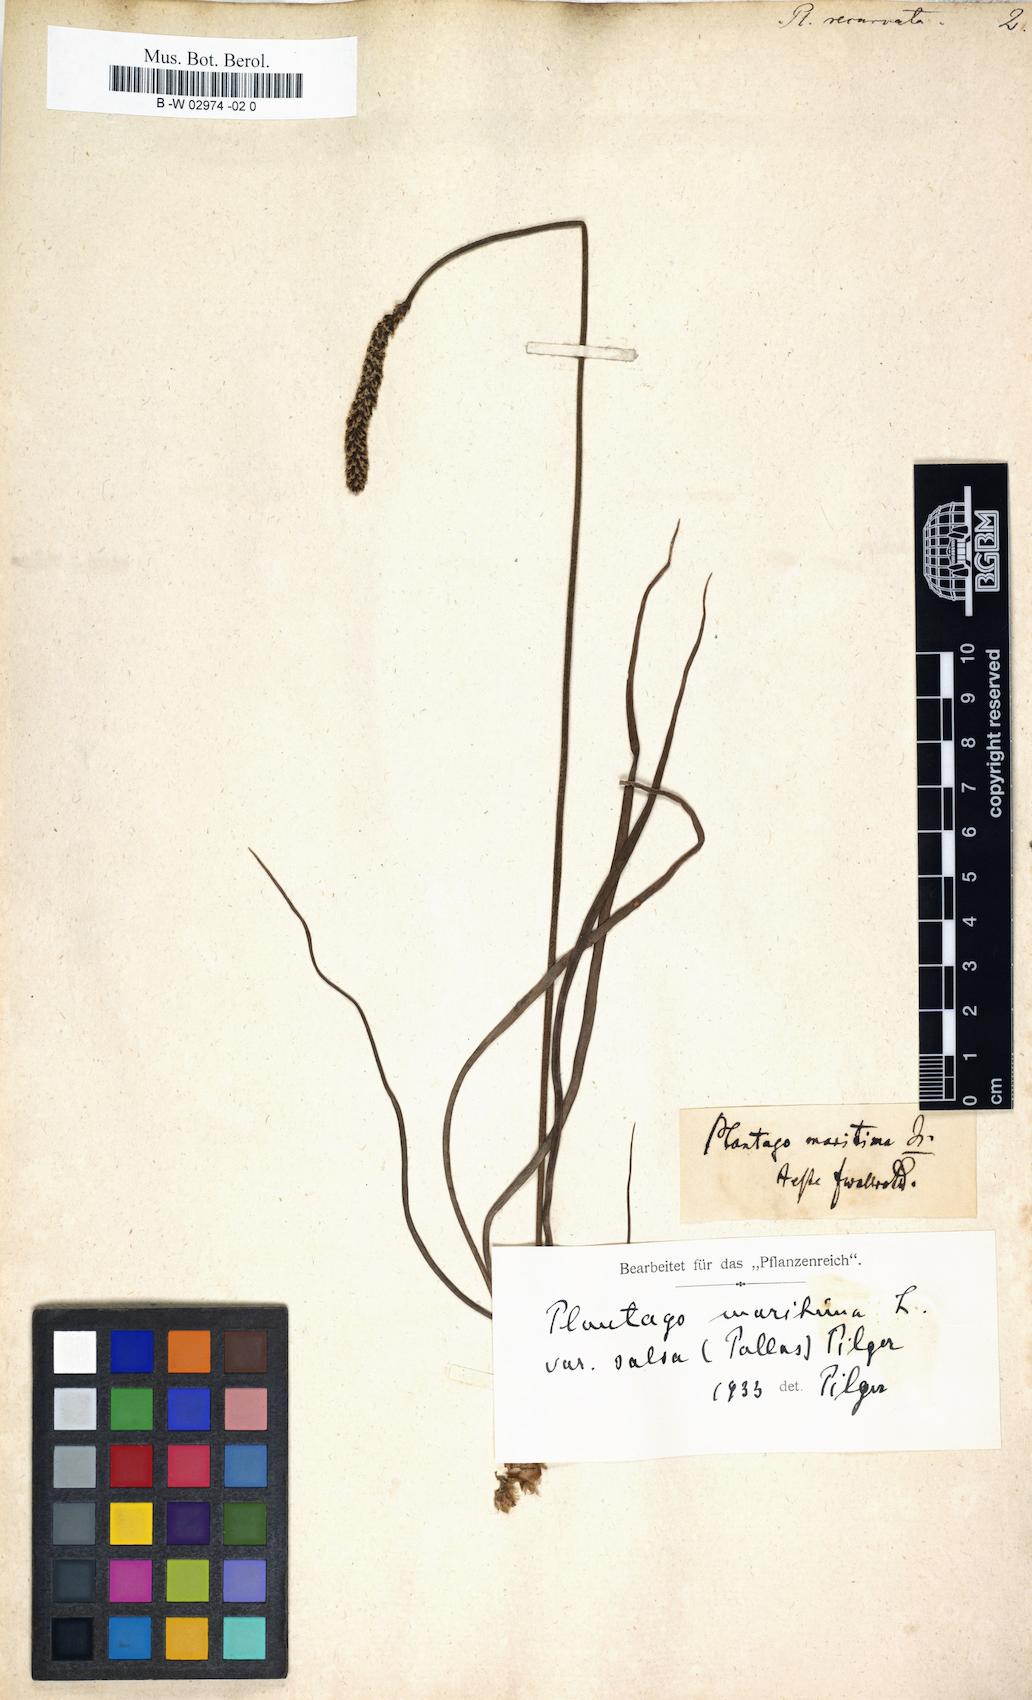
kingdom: Plantae
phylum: Tracheophyta
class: Magnoliopsida
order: Lamiales
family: Plantaginaceae
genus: Plantago
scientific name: Plantago
